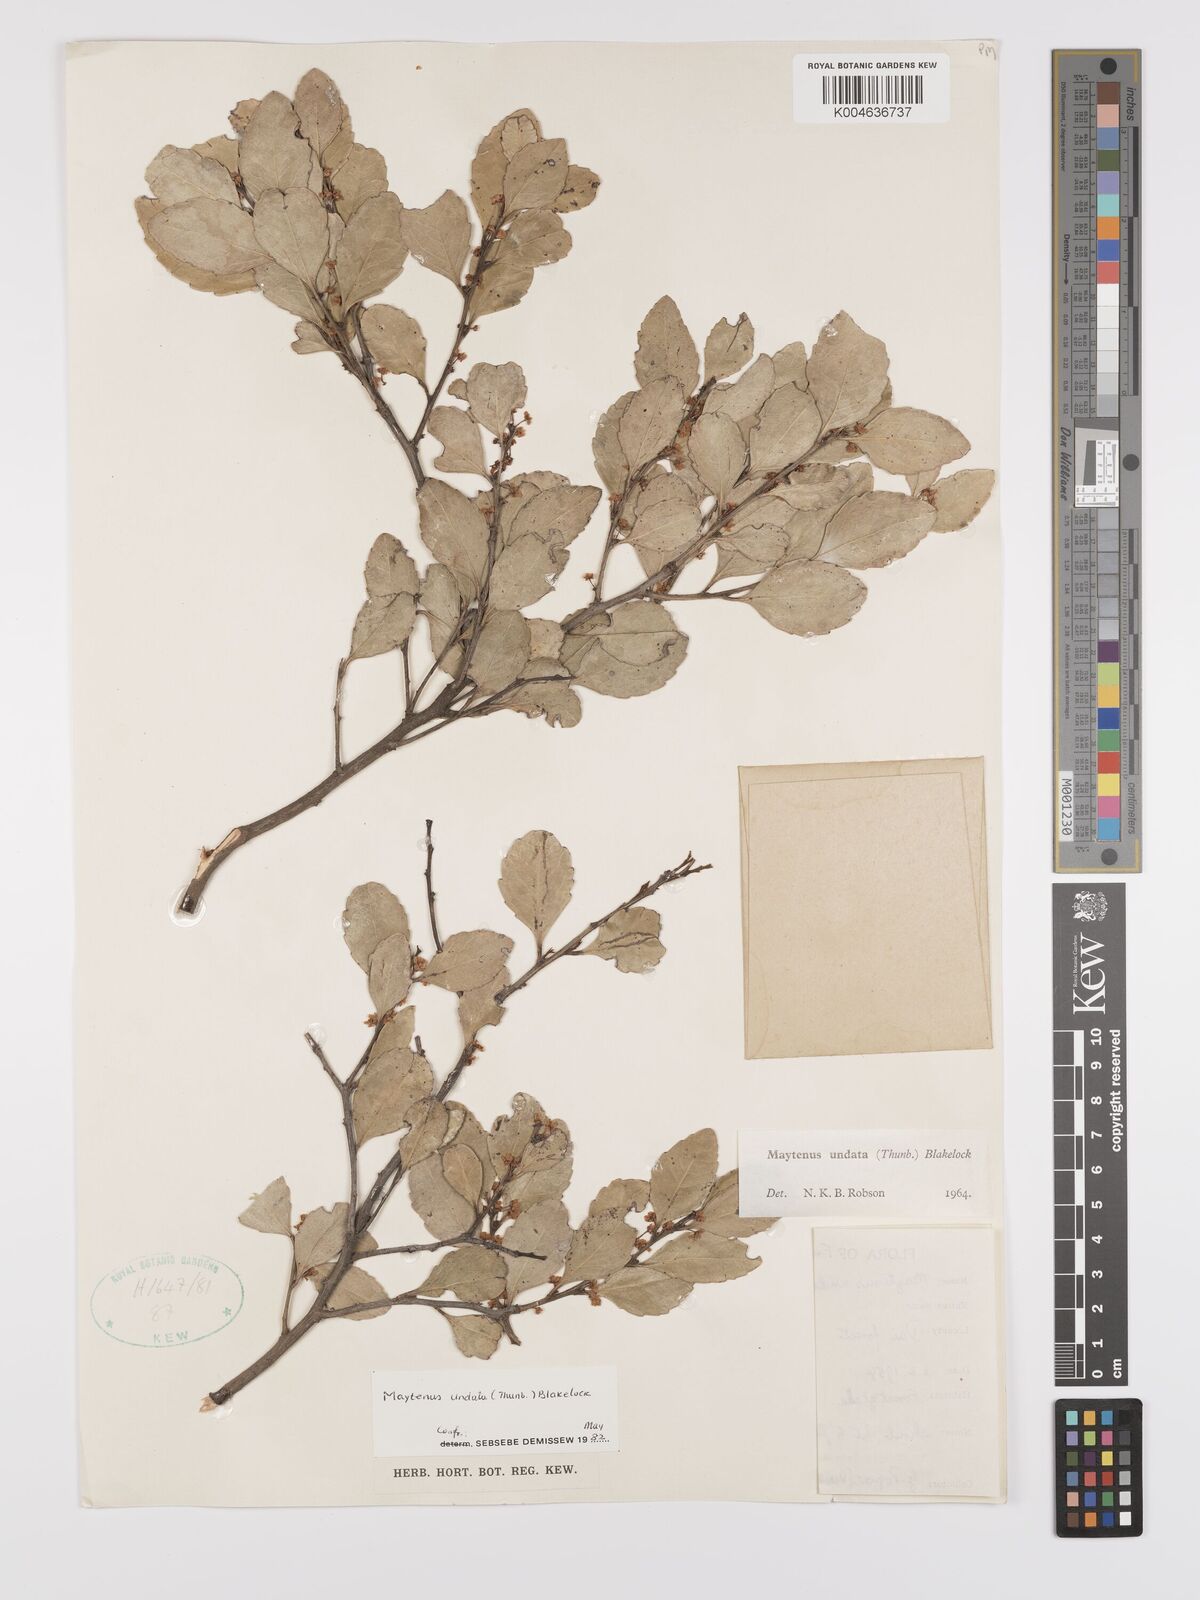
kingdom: Plantae
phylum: Tracheophyta
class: Magnoliopsida
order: Celastrales
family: Celastraceae
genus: Gymnosporia
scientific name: Gymnosporia undata
